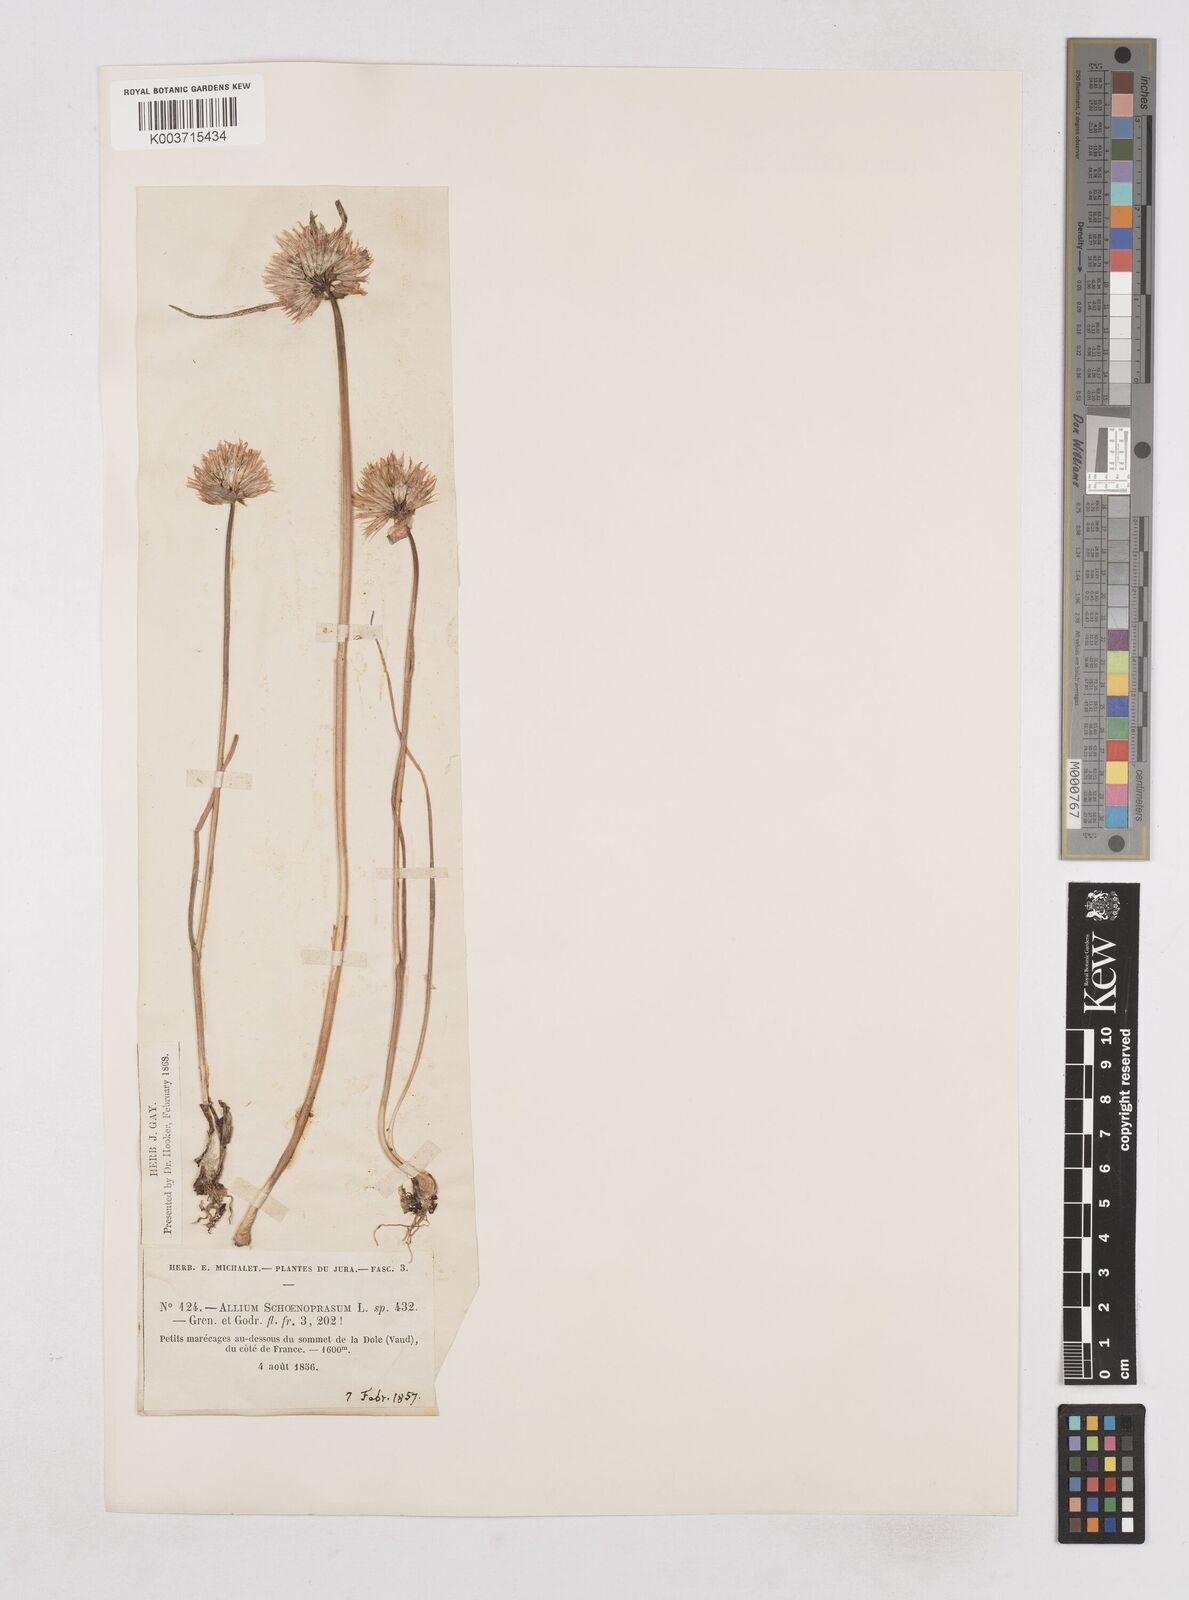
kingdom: Plantae
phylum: Tracheophyta
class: Liliopsida
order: Asparagales
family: Amaryllidaceae
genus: Allium
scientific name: Allium schoenoprasum
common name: Chives
